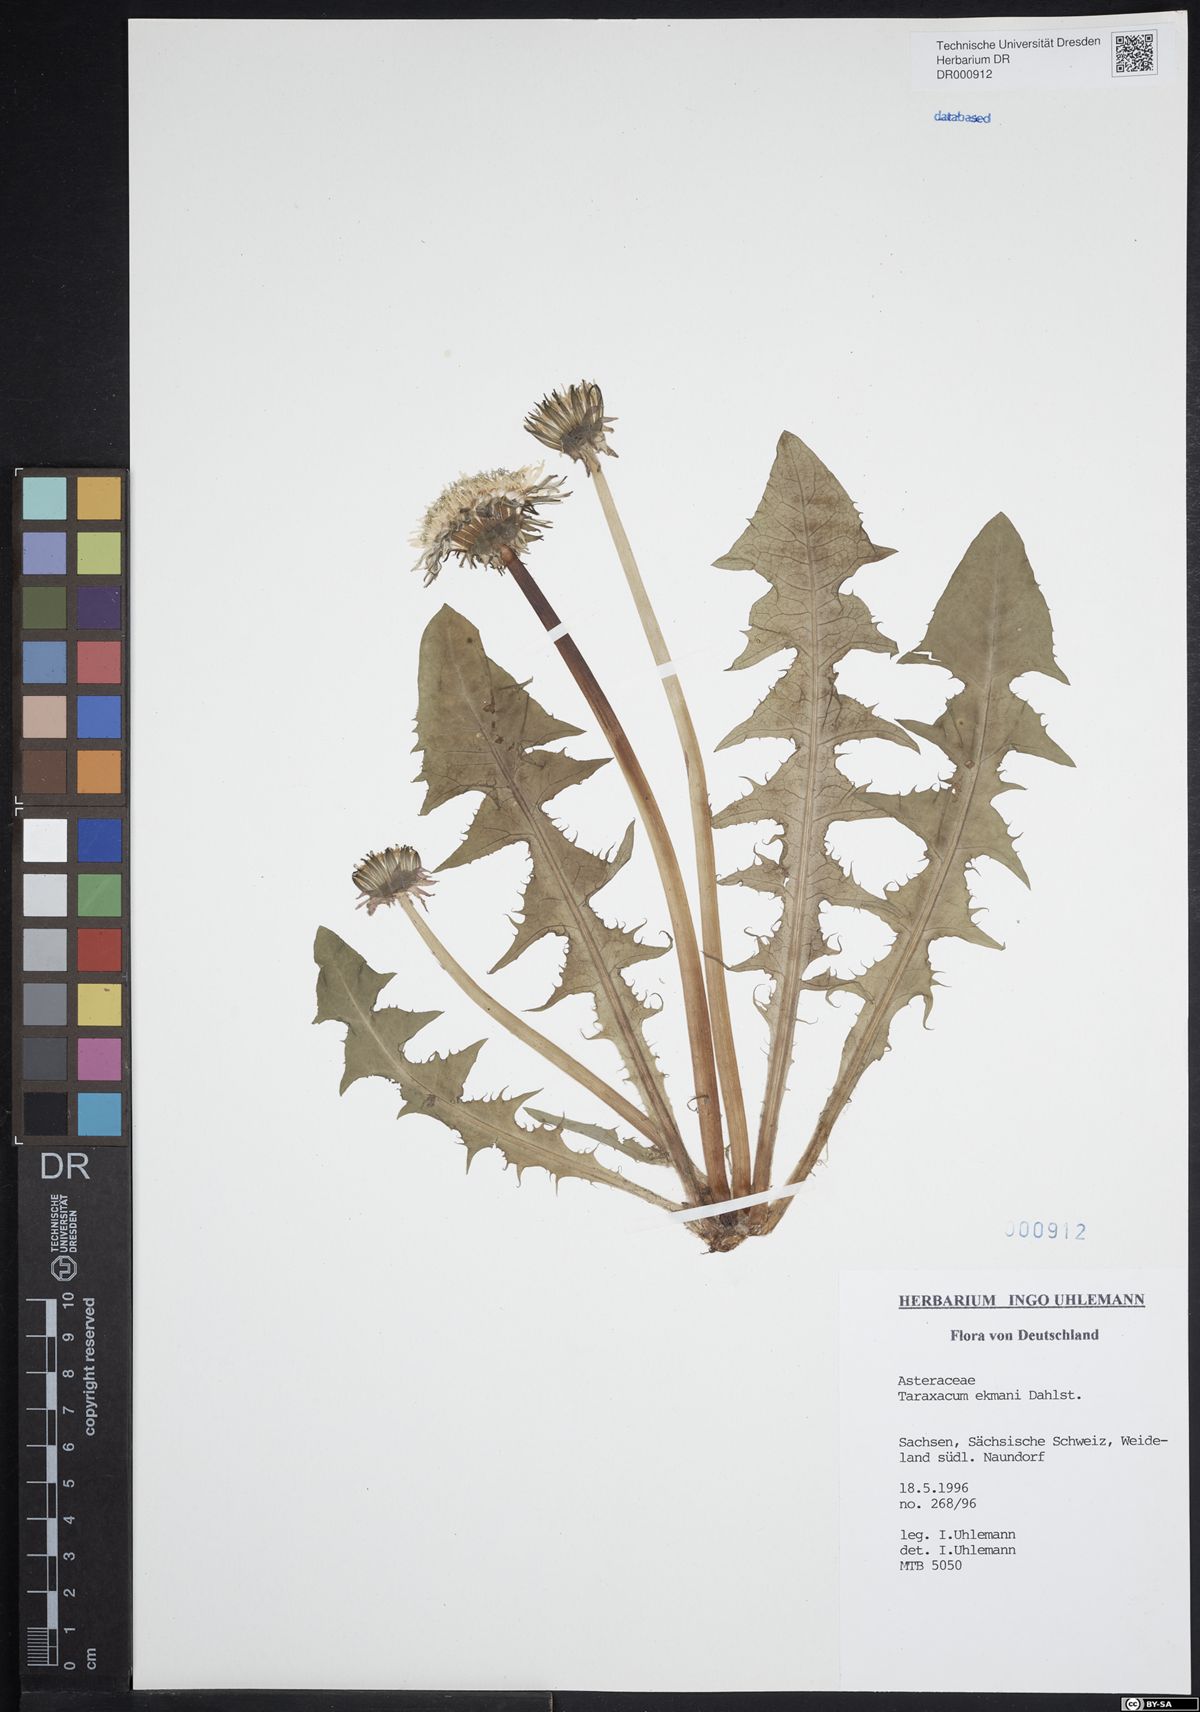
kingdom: Plantae
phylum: Tracheophyta
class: Magnoliopsida
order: Asterales
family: Asteraceae
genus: Taraxacum
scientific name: Taraxacum ekmanii
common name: Ekman's dandelion
